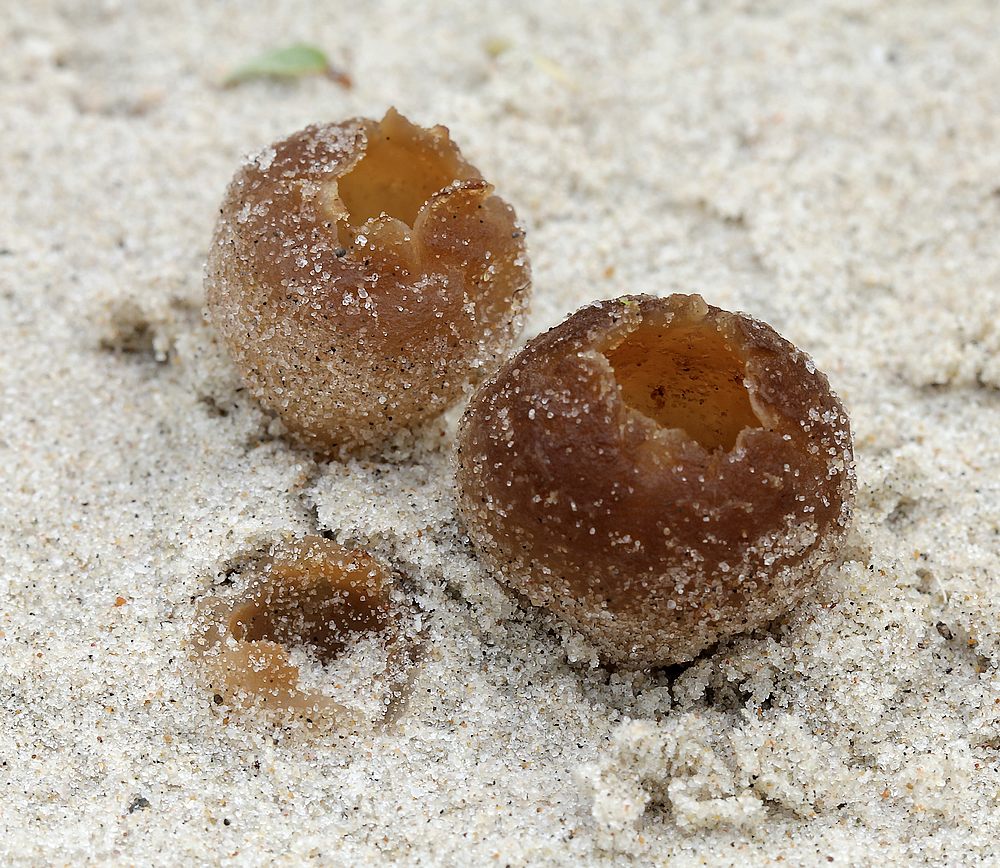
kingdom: Fungi
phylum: Ascomycota
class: Pezizomycetes
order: Pezizales
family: Pyronemataceae
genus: Lamprospora
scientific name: Lamprospora ammophila
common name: klit-bægersvamp
